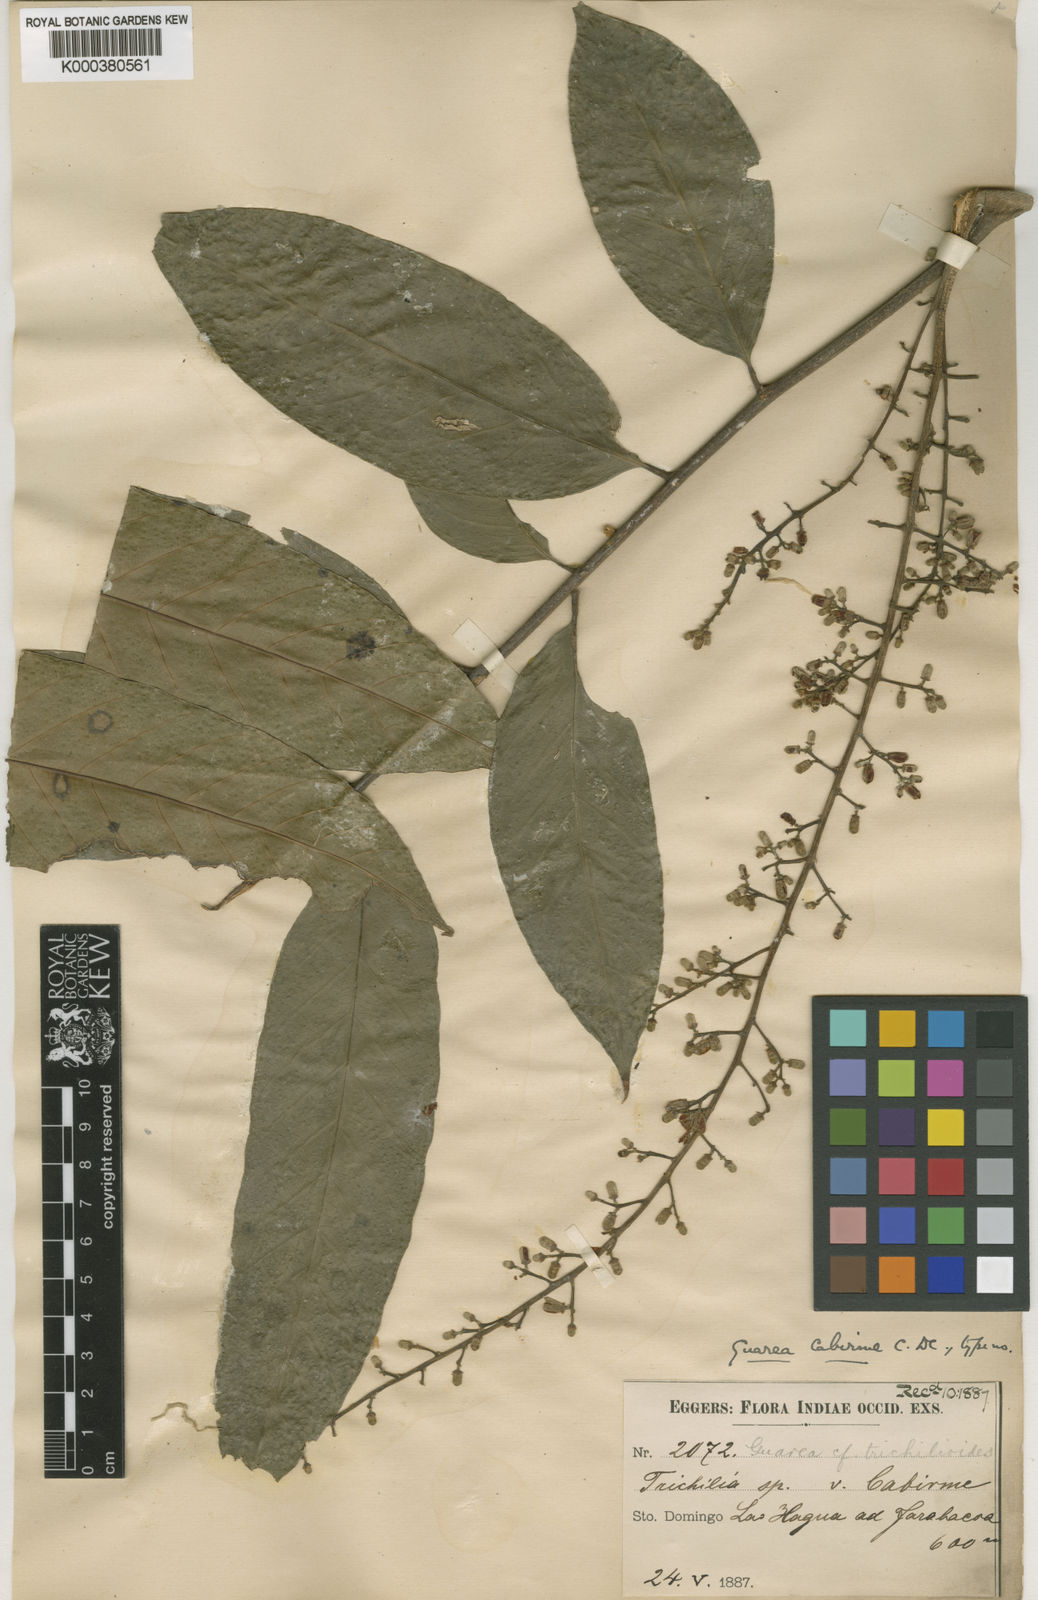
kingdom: Plantae
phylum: Tracheophyta
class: Magnoliopsida
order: Sapindales
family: Meliaceae
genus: Guarea
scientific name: Guarea guidonia
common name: American muskwood
